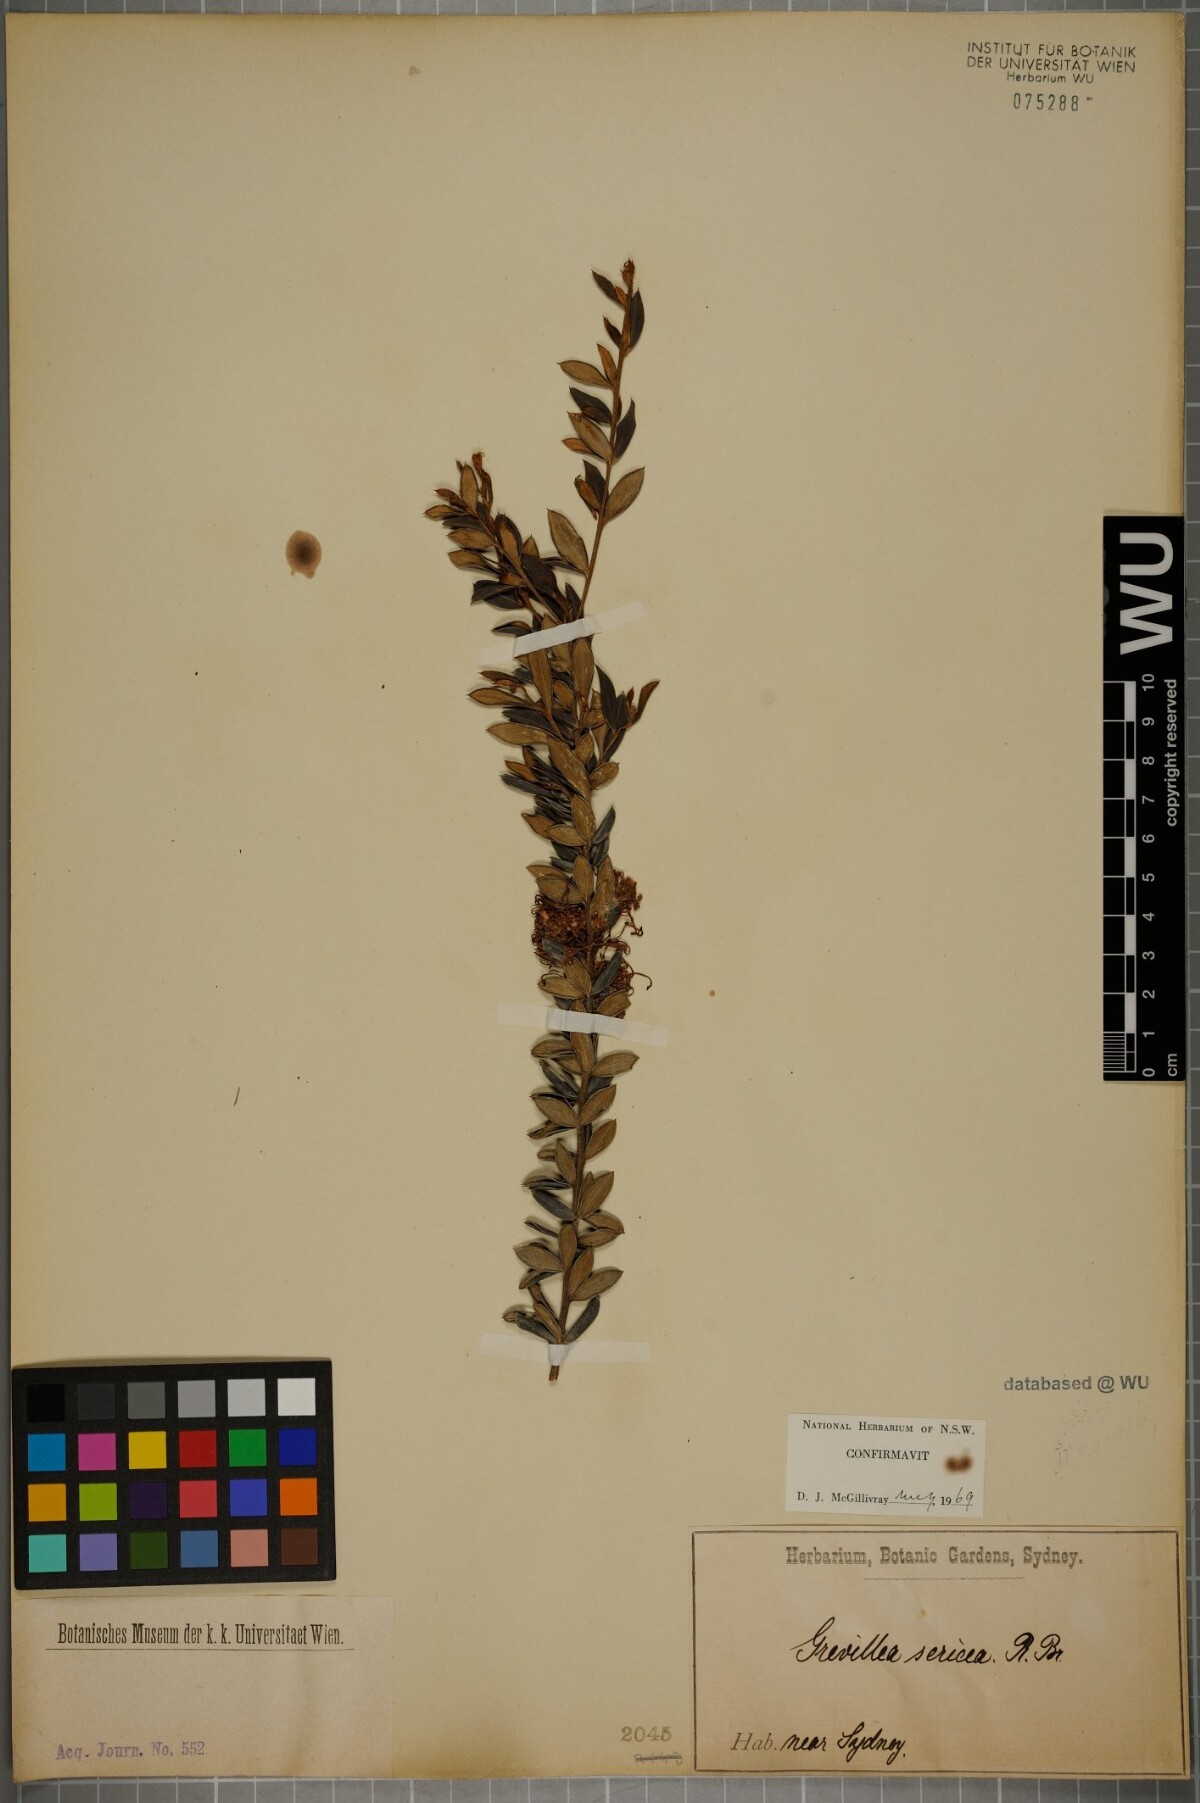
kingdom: Plantae
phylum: Tracheophyta
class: Magnoliopsida
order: Proteales
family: Proteaceae
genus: Grevillea
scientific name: Grevillea sericea
